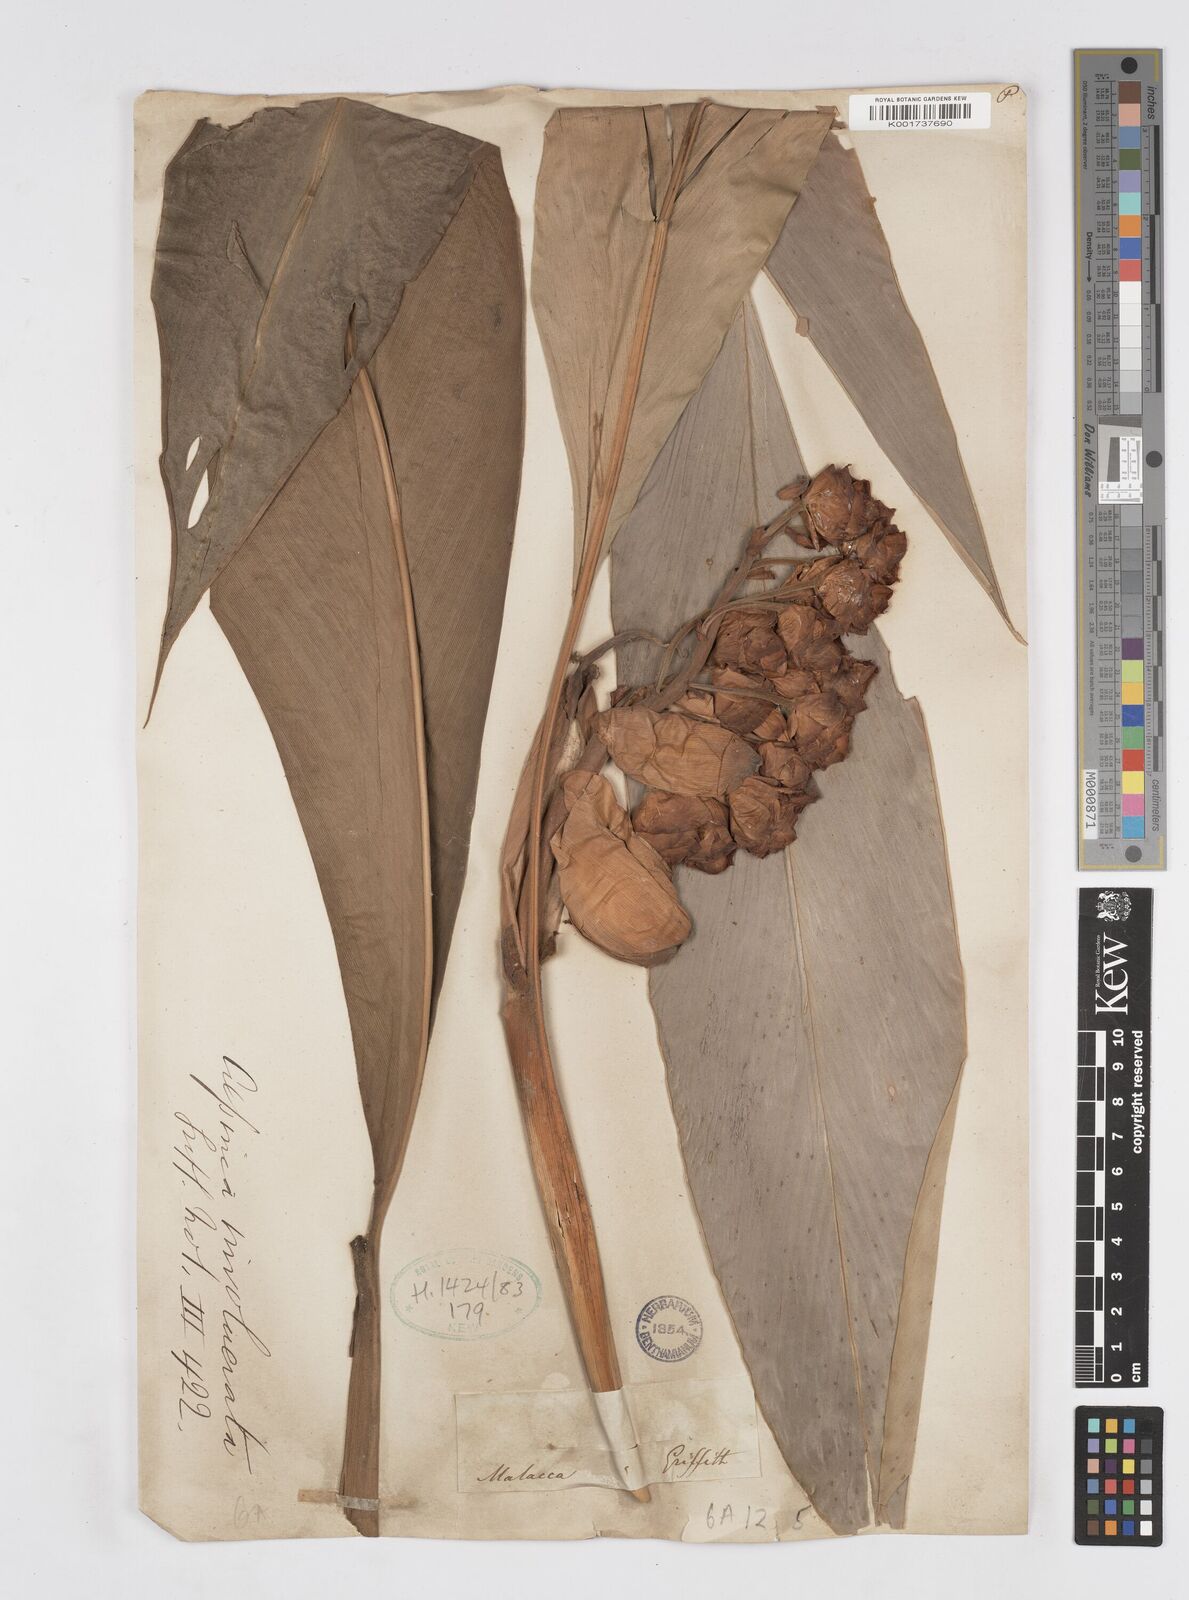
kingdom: Plantae
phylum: Tracheophyta
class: Liliopsida
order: Zingiberales
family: Zingiberaceae
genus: Alpinia
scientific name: Alpinia javanica
